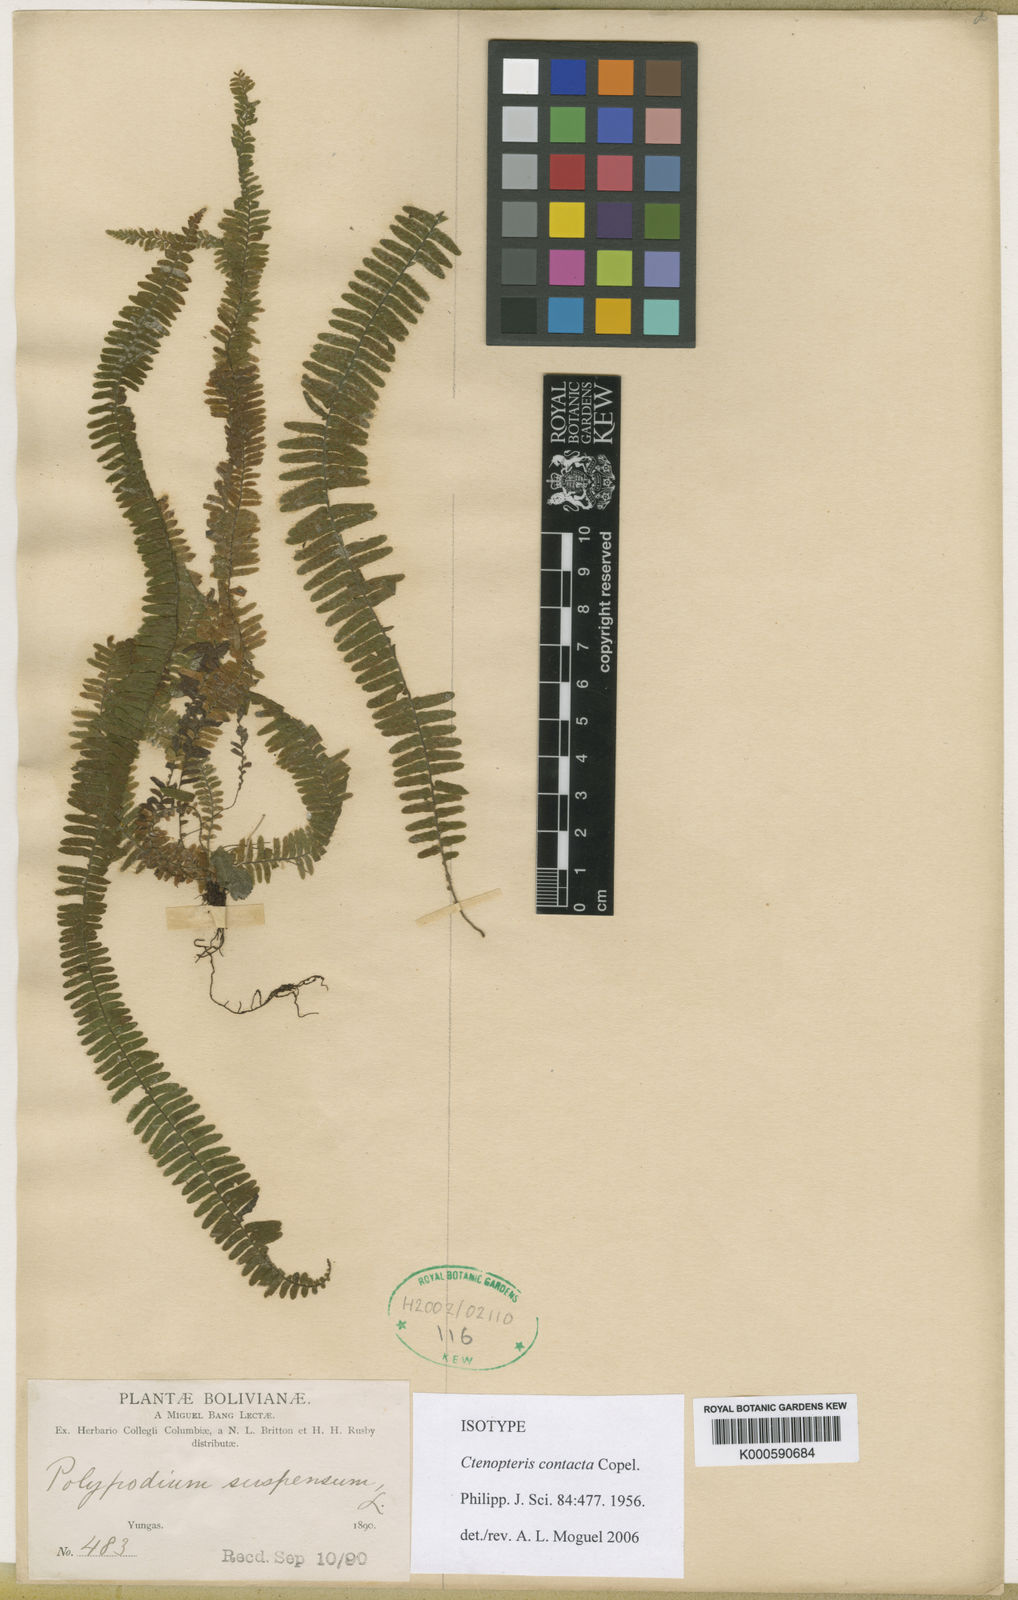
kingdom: Plantae
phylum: Tracheophyta
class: Polypodiopsida
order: Polypodiales
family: Polypodiaceae
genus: Alansmia
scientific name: Alansmia contacta
